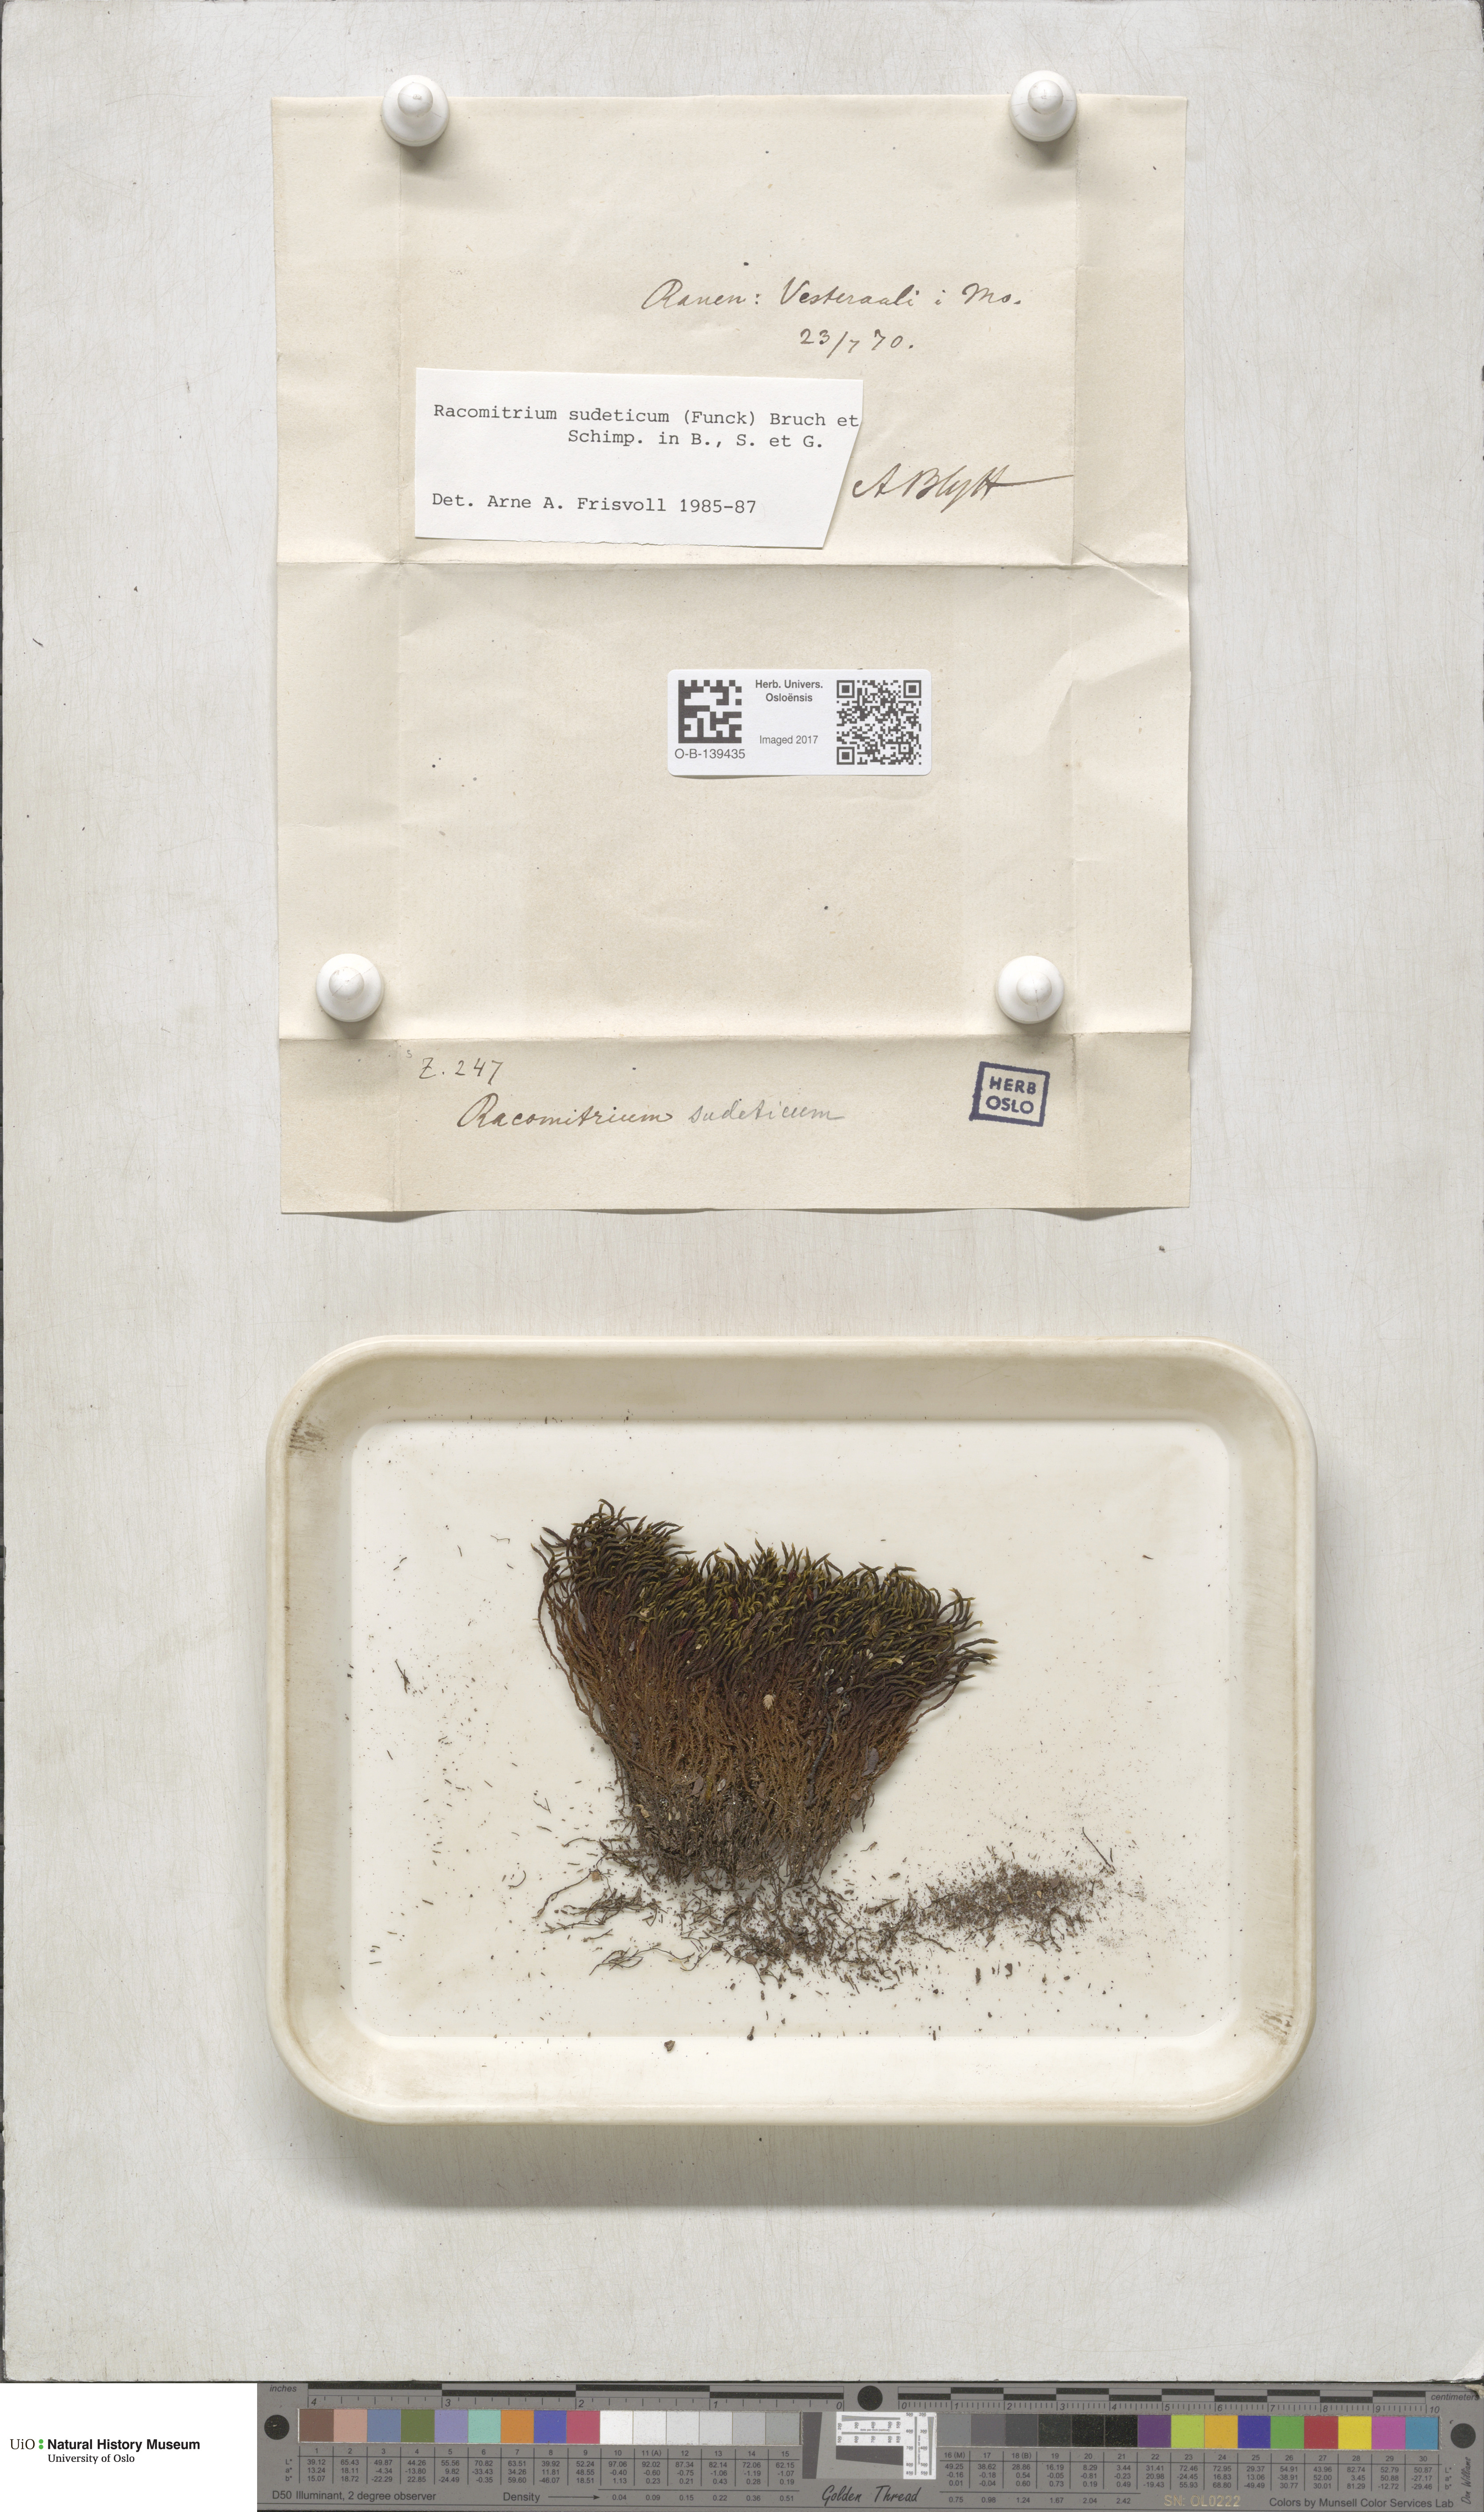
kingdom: Plantae
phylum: Bryophyta
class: Bryopsida
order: Grimmiales
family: Grimmiaceae
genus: Bucklandiella
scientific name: Bucklandiella sudetica
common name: Slender fringe-moss
